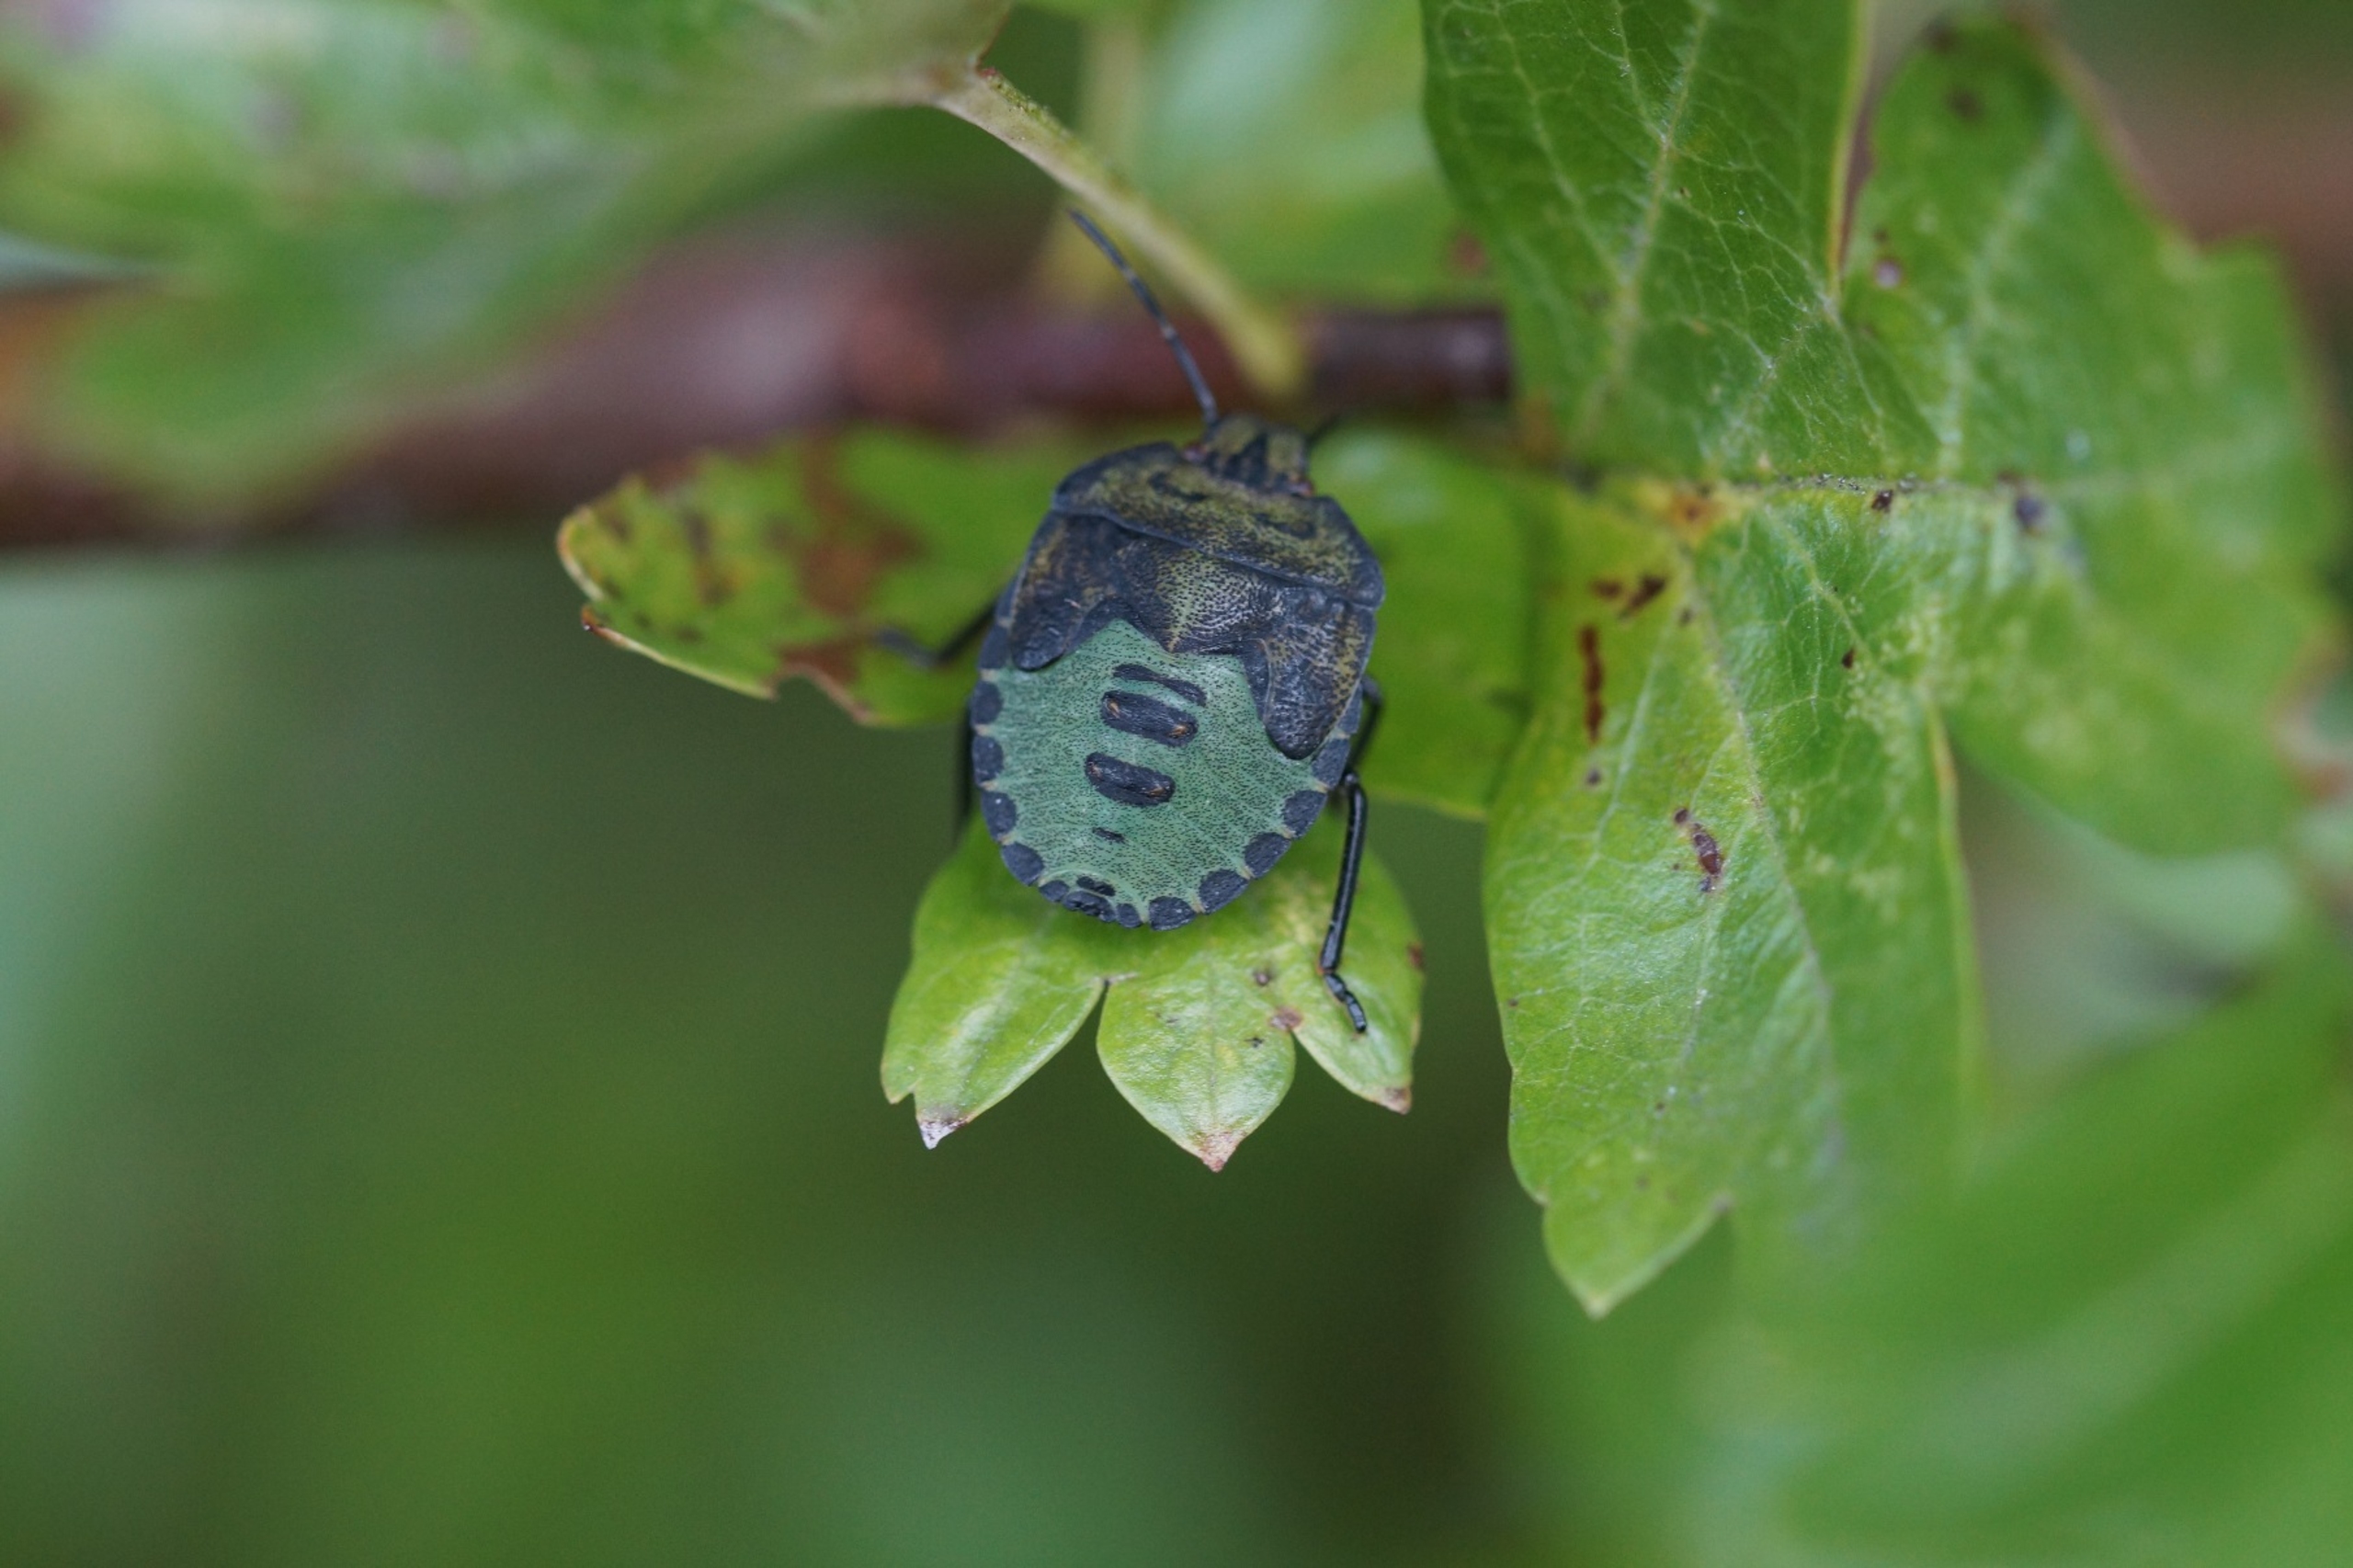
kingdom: Animalia
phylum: Arthropoda
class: Insecta
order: Hemiptera
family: Pentatomidae
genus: Palomena
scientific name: Palomena prasina
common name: Grøn bredtæge
